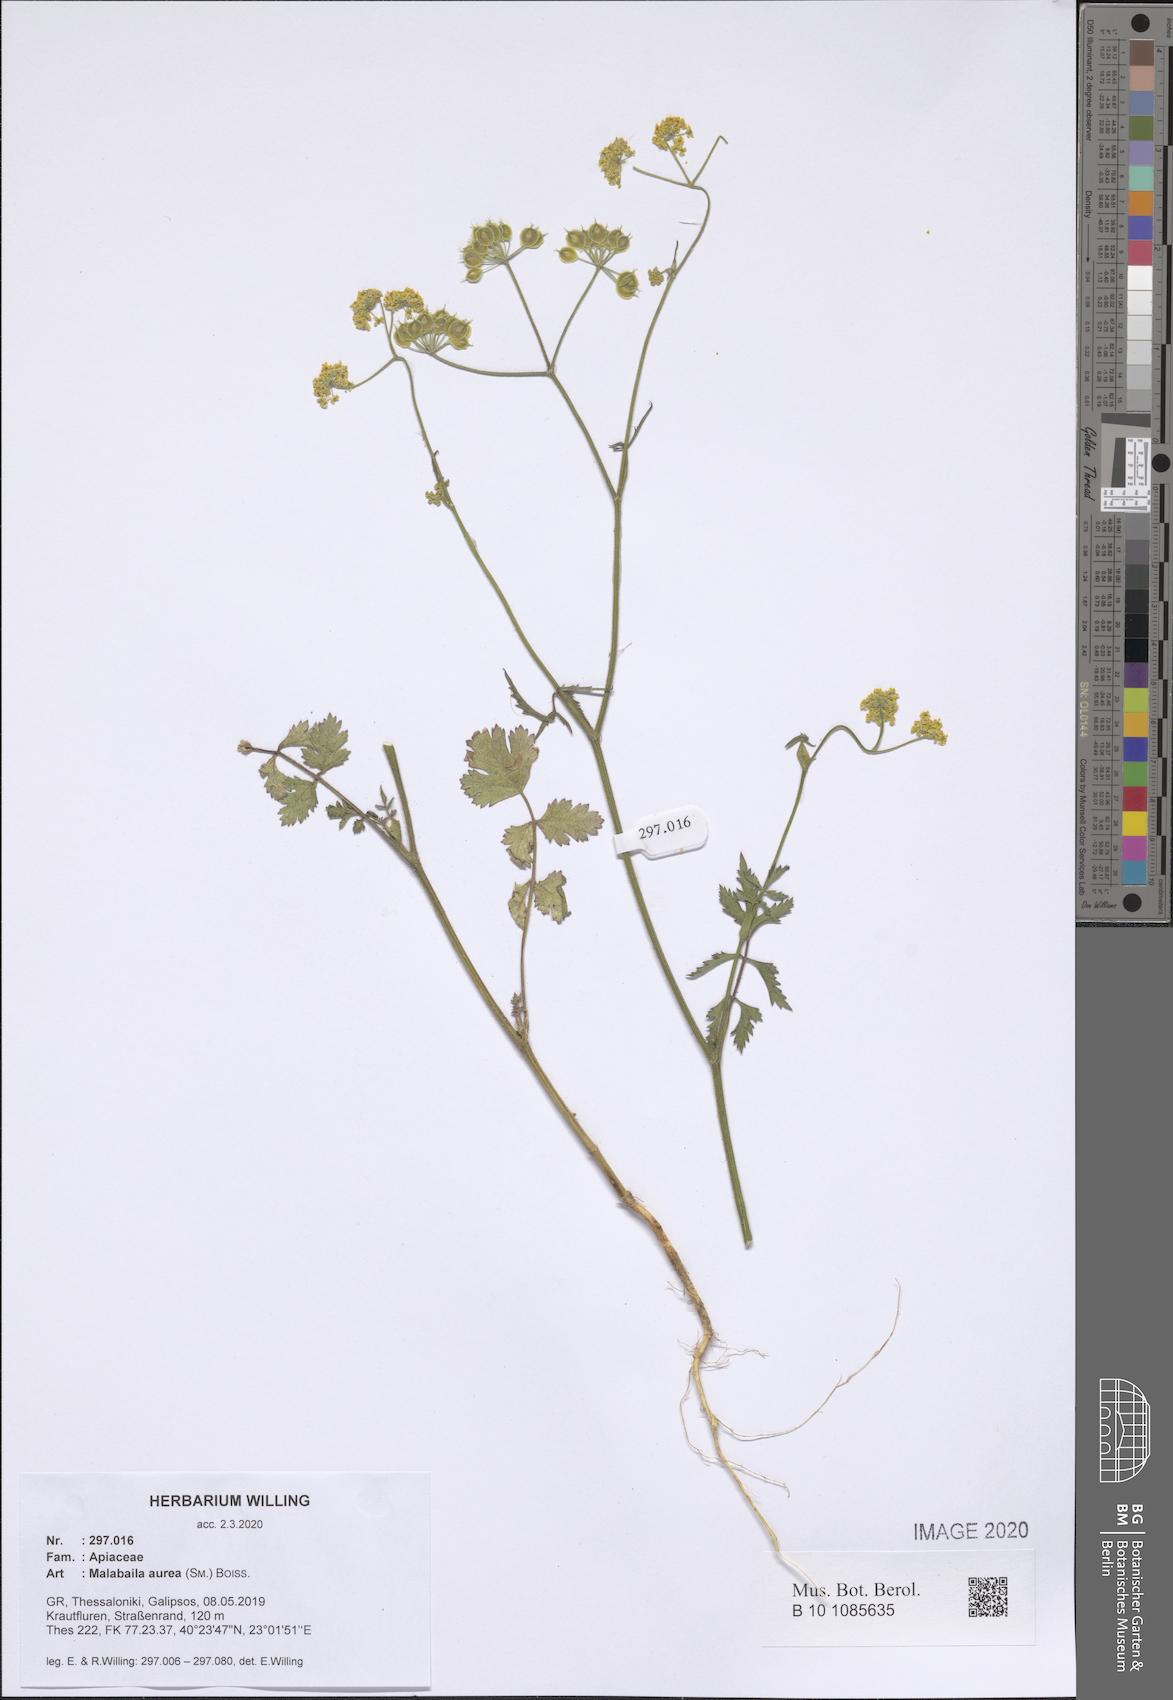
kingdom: Plantae
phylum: Tracheophyta
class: Magnoliopsida
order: Apiales
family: Apiaceae
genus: Leiotulus
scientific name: Leiotulus aureus
